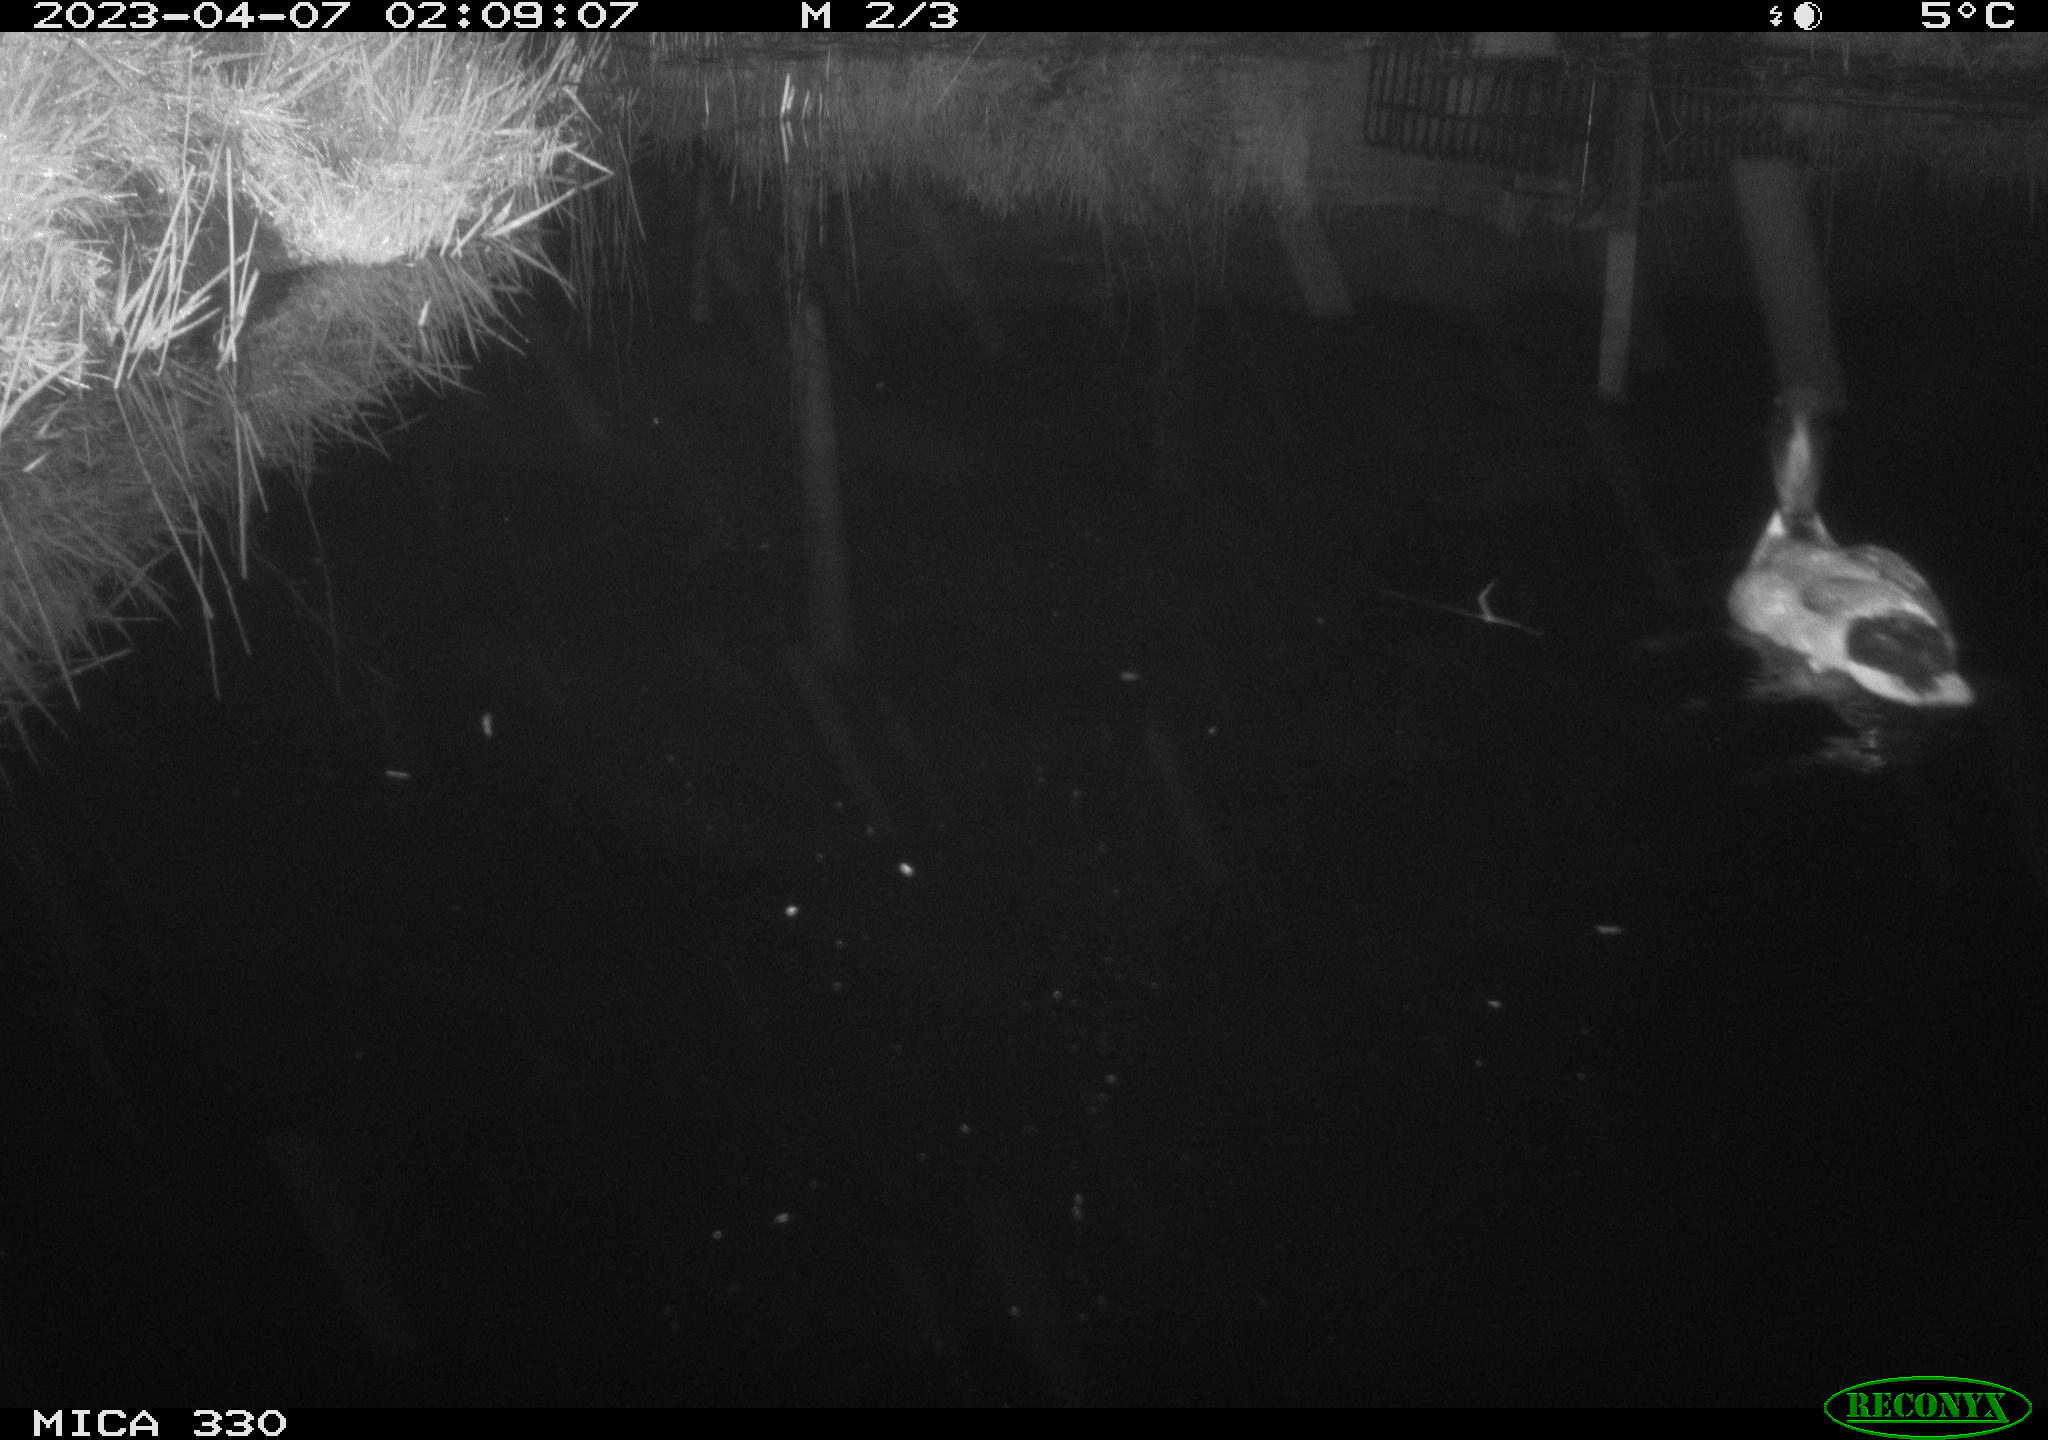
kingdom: Animalia
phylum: Chordata
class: Aves
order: Anseriformes
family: Anatidae
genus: Anas
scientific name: Anas
